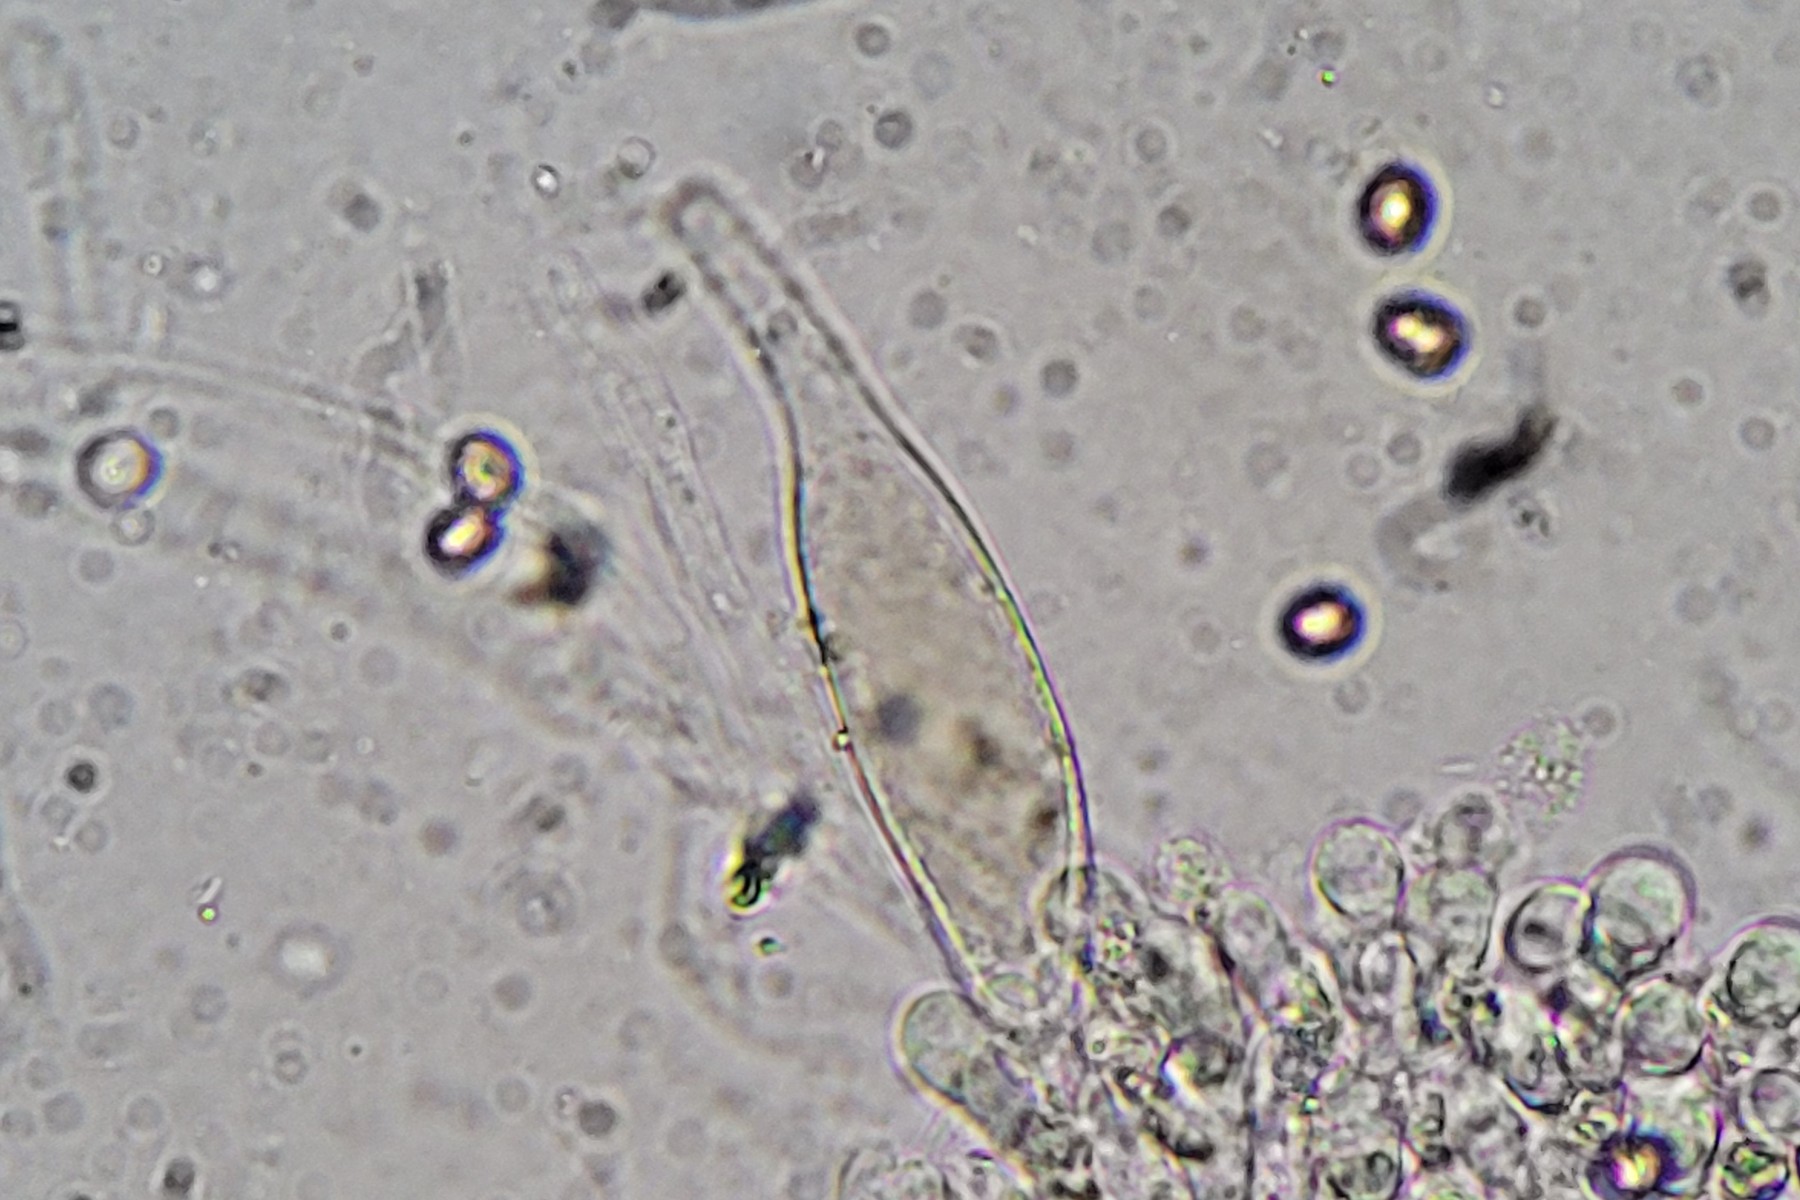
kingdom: Fungi
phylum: Basidiomycota
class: Agaricomycetes
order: Agaricales
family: Pluteaceae
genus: Pluteus
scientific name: Pluteus phlebophorus
